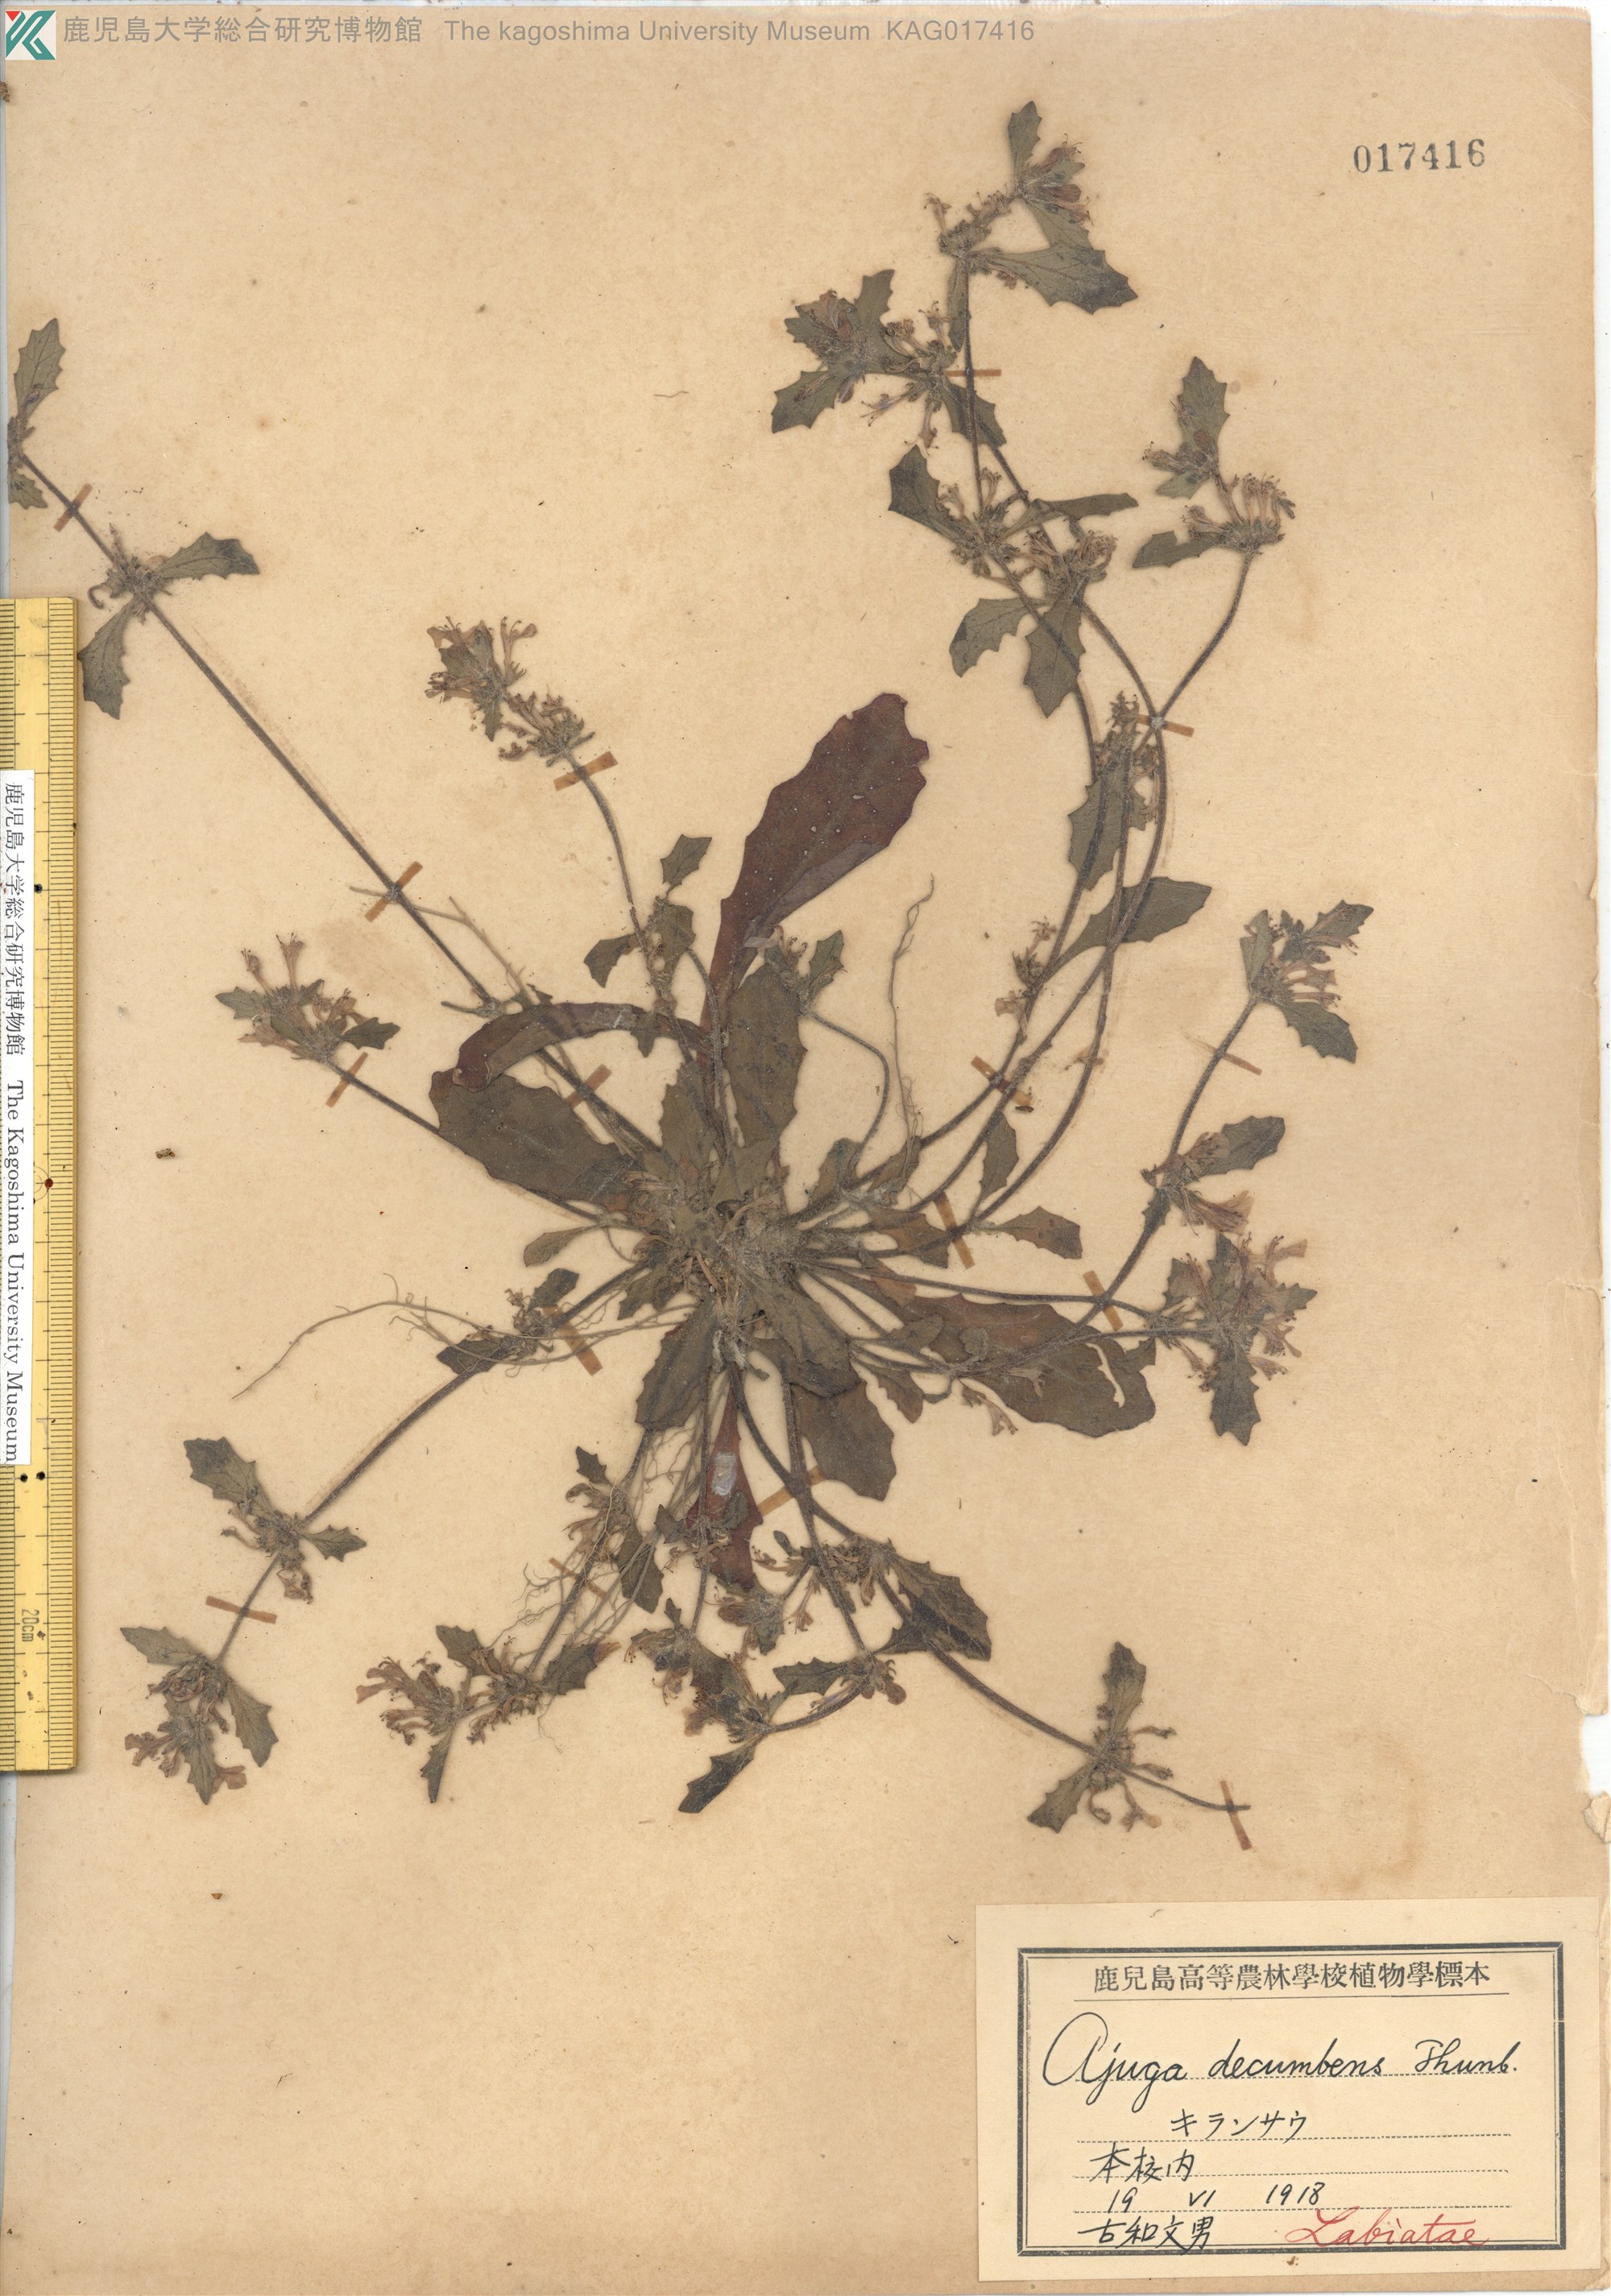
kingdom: Plantae
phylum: Tracheophyta
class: Magnoliopsida
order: Lamiales
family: Lamiaceae
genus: Ajuga
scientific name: Ajuga decumbens
